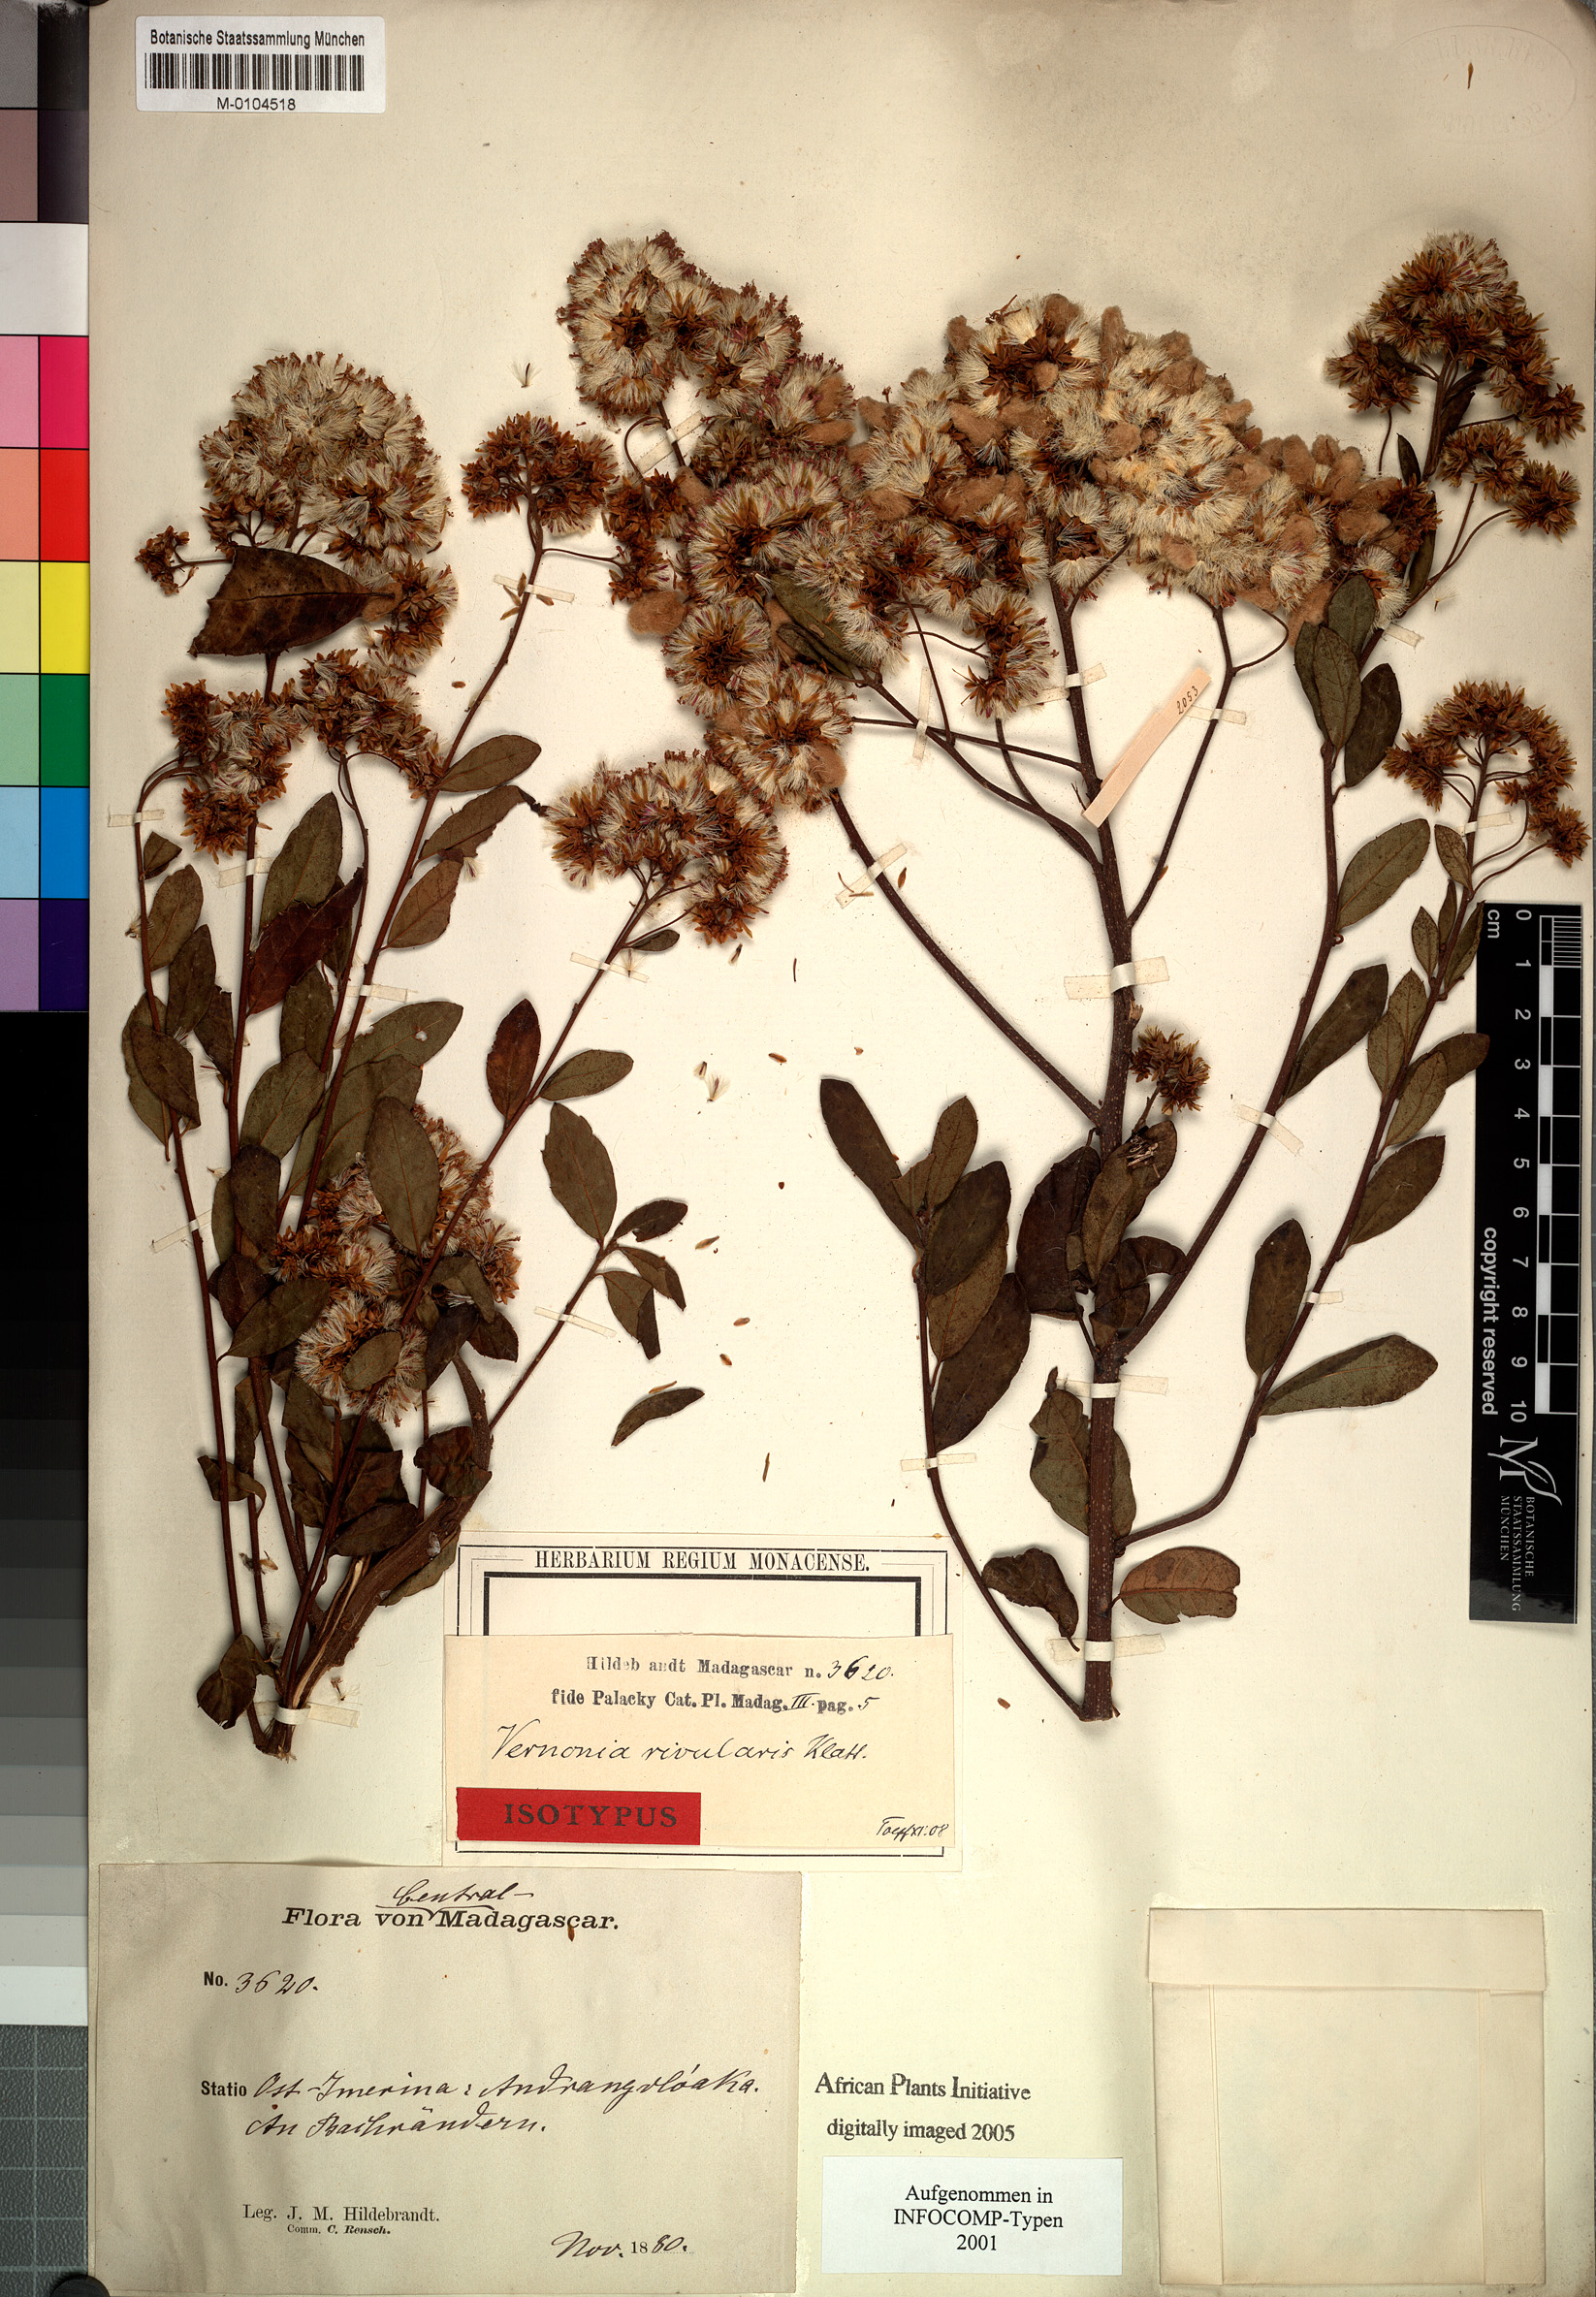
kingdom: Plantae
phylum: Tracheophyta
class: Magnoliopsida
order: Asterales
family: Asteraceae
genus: Vernonia
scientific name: Vernonia delapsa
